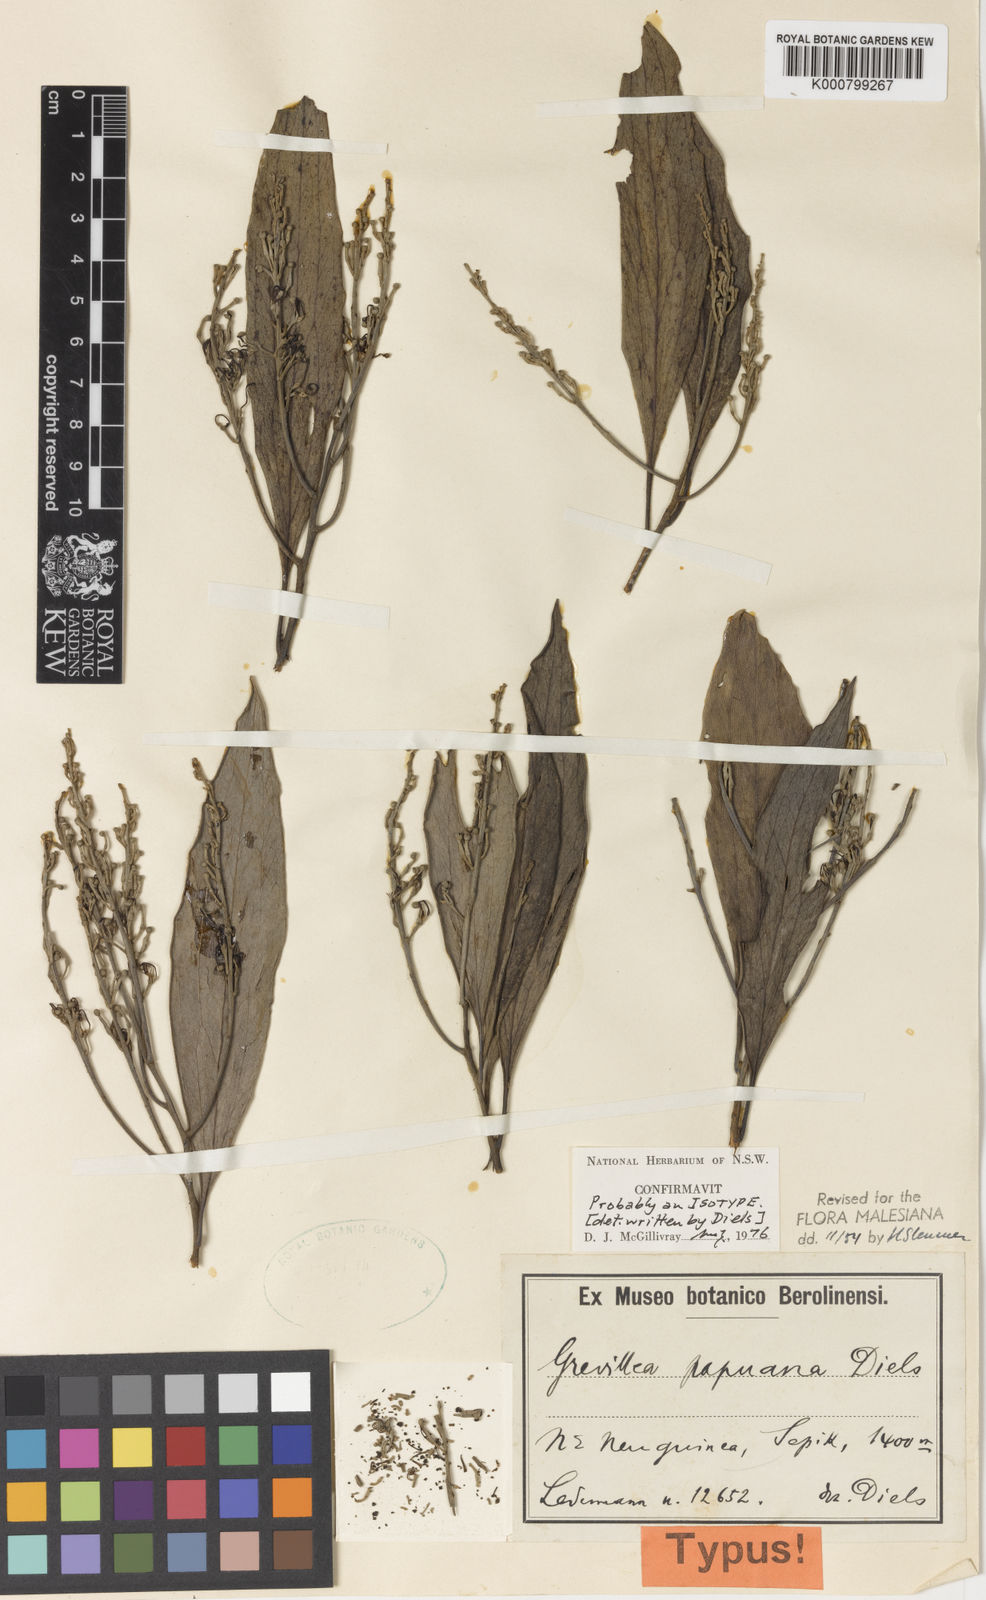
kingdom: Plantae
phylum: Tracheophyta
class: Magnoliopsida
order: Proteales
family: Proteaceae
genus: Grevillea
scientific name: Grevillea papuana
